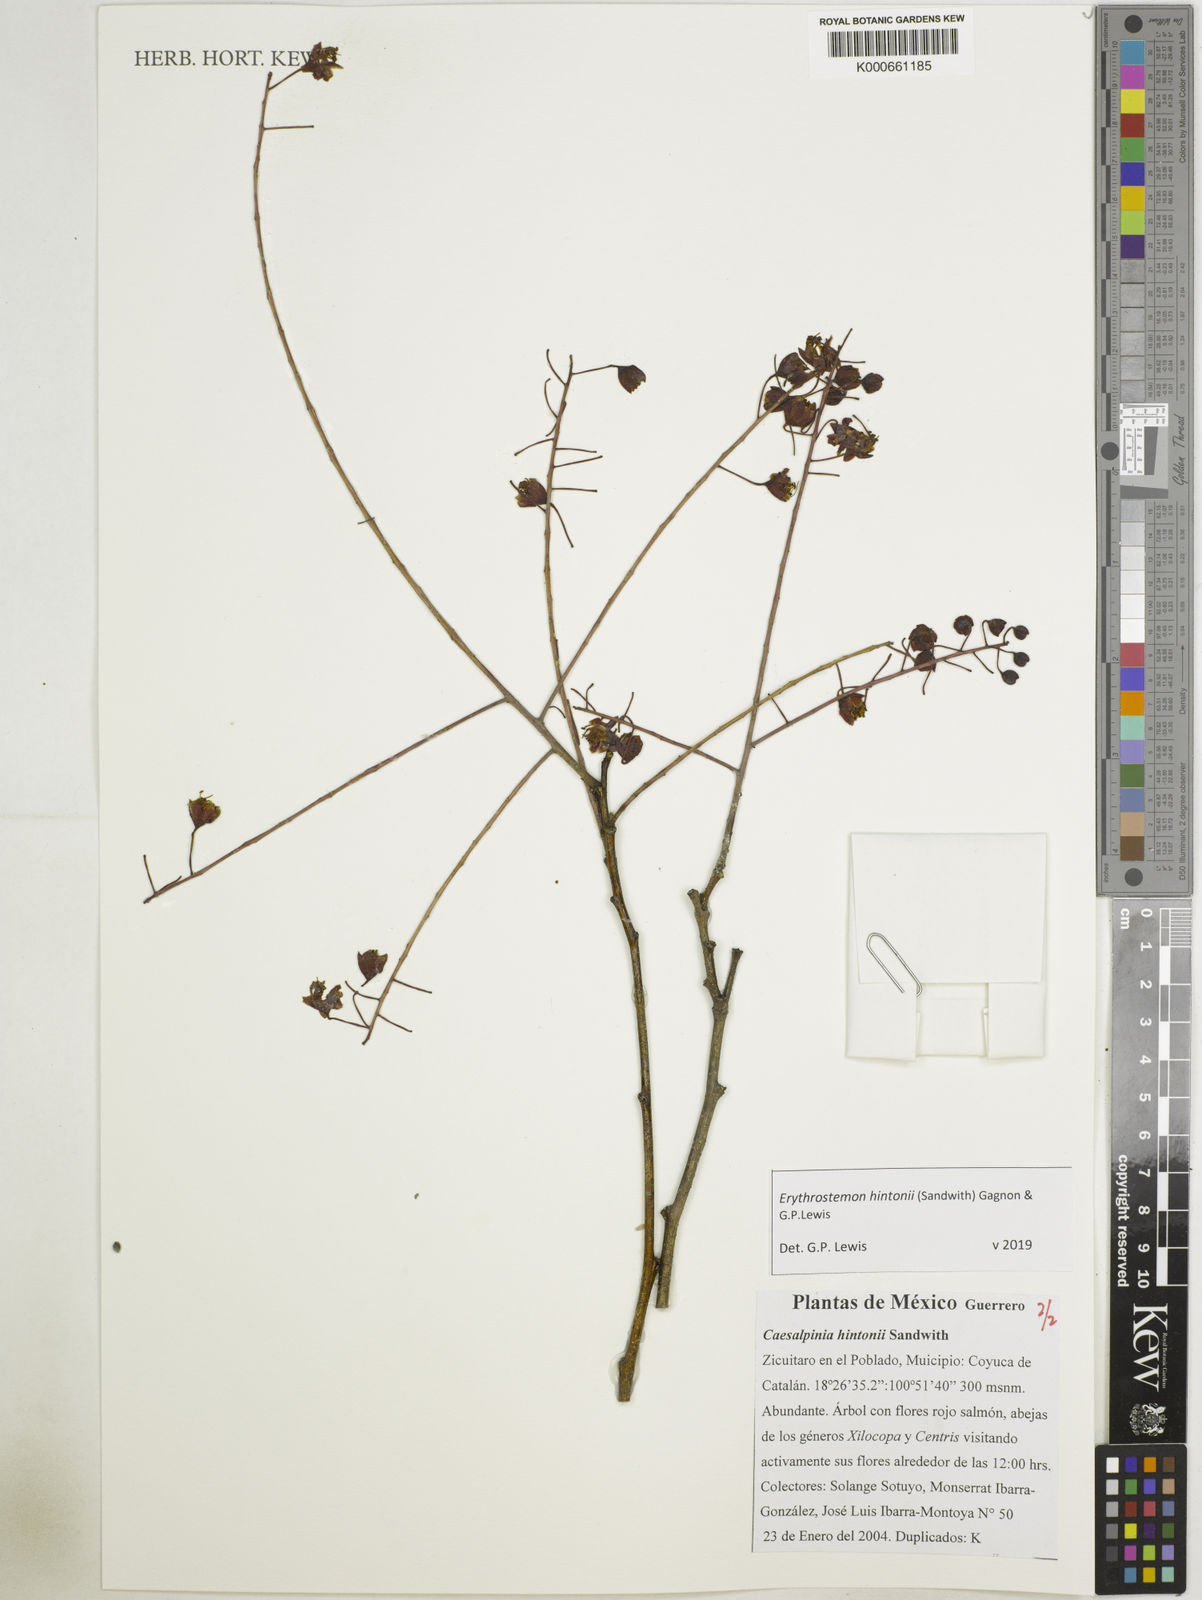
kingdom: Plantae
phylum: Tracheophyta
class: Magnoliopsida
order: Fabales
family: Fabaceae
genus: Erythrostemon
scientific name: Erythrostemon hintonii
